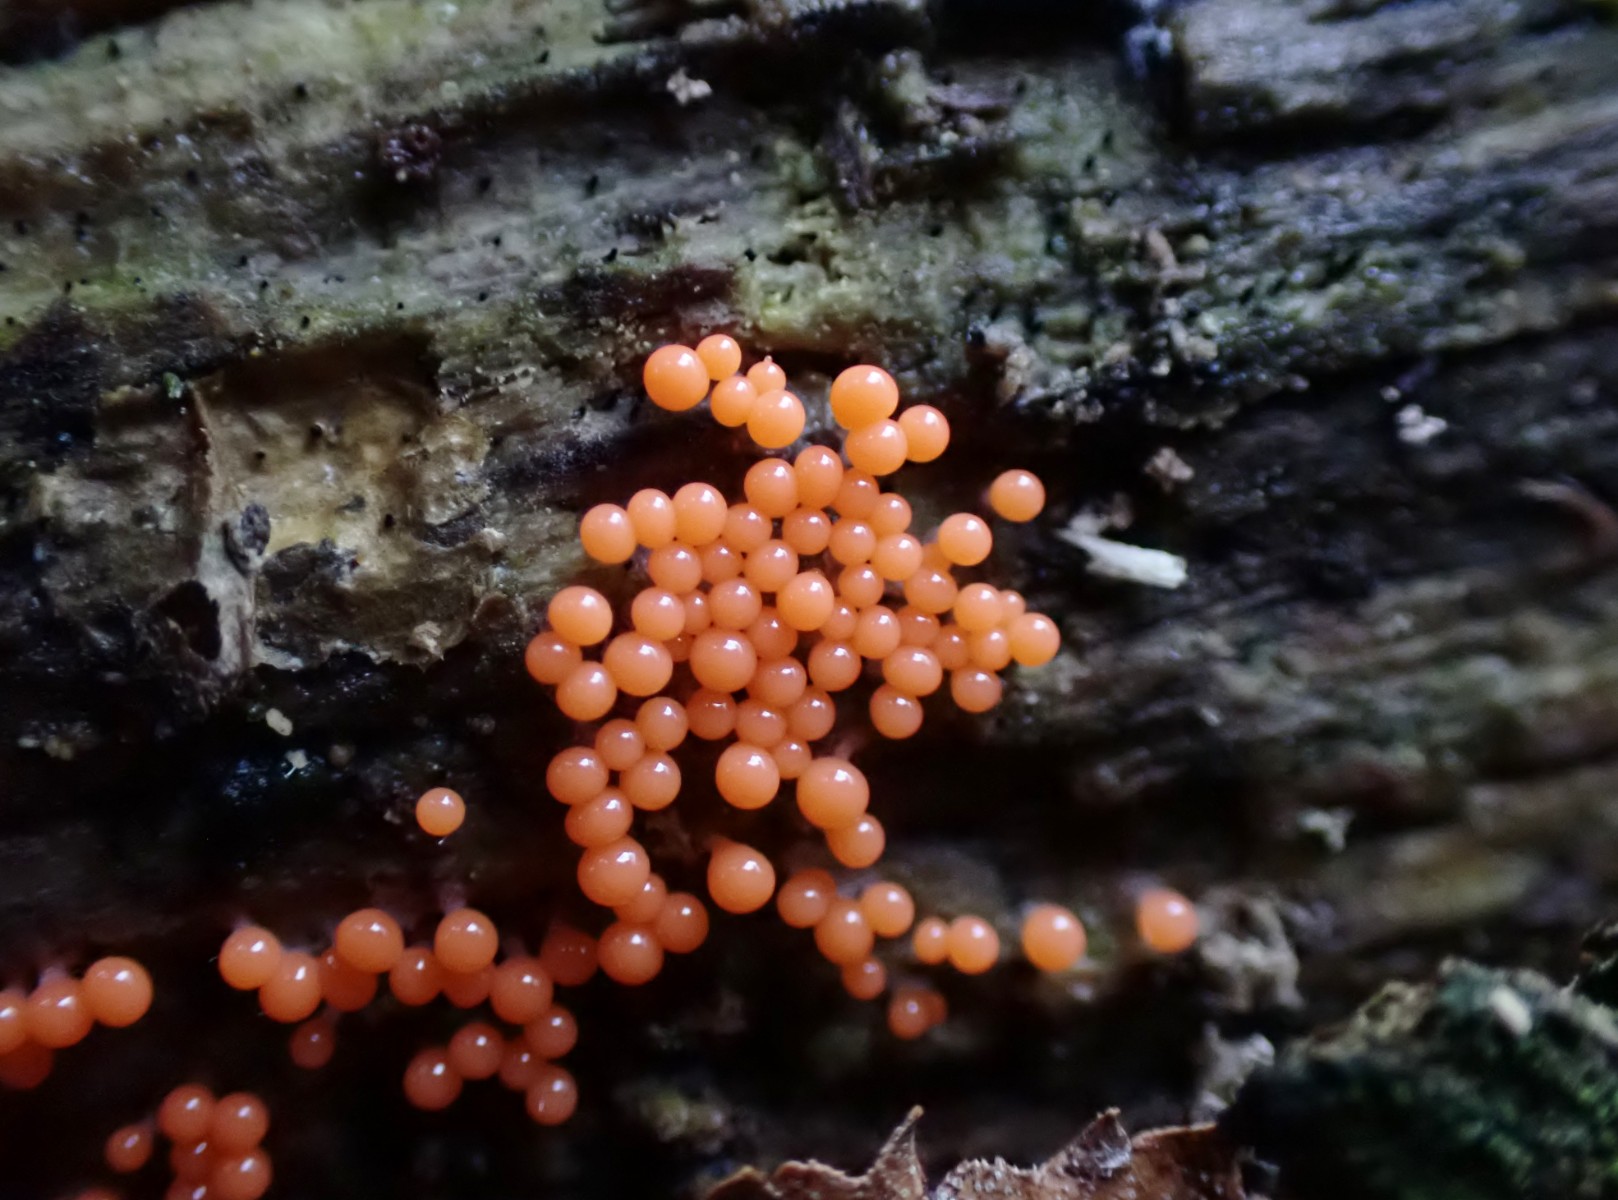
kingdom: Protozoa
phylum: Mycetozoa
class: Myxomycetes
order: Trichiales
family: Trichiaceae
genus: Trichia
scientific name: Trichia
